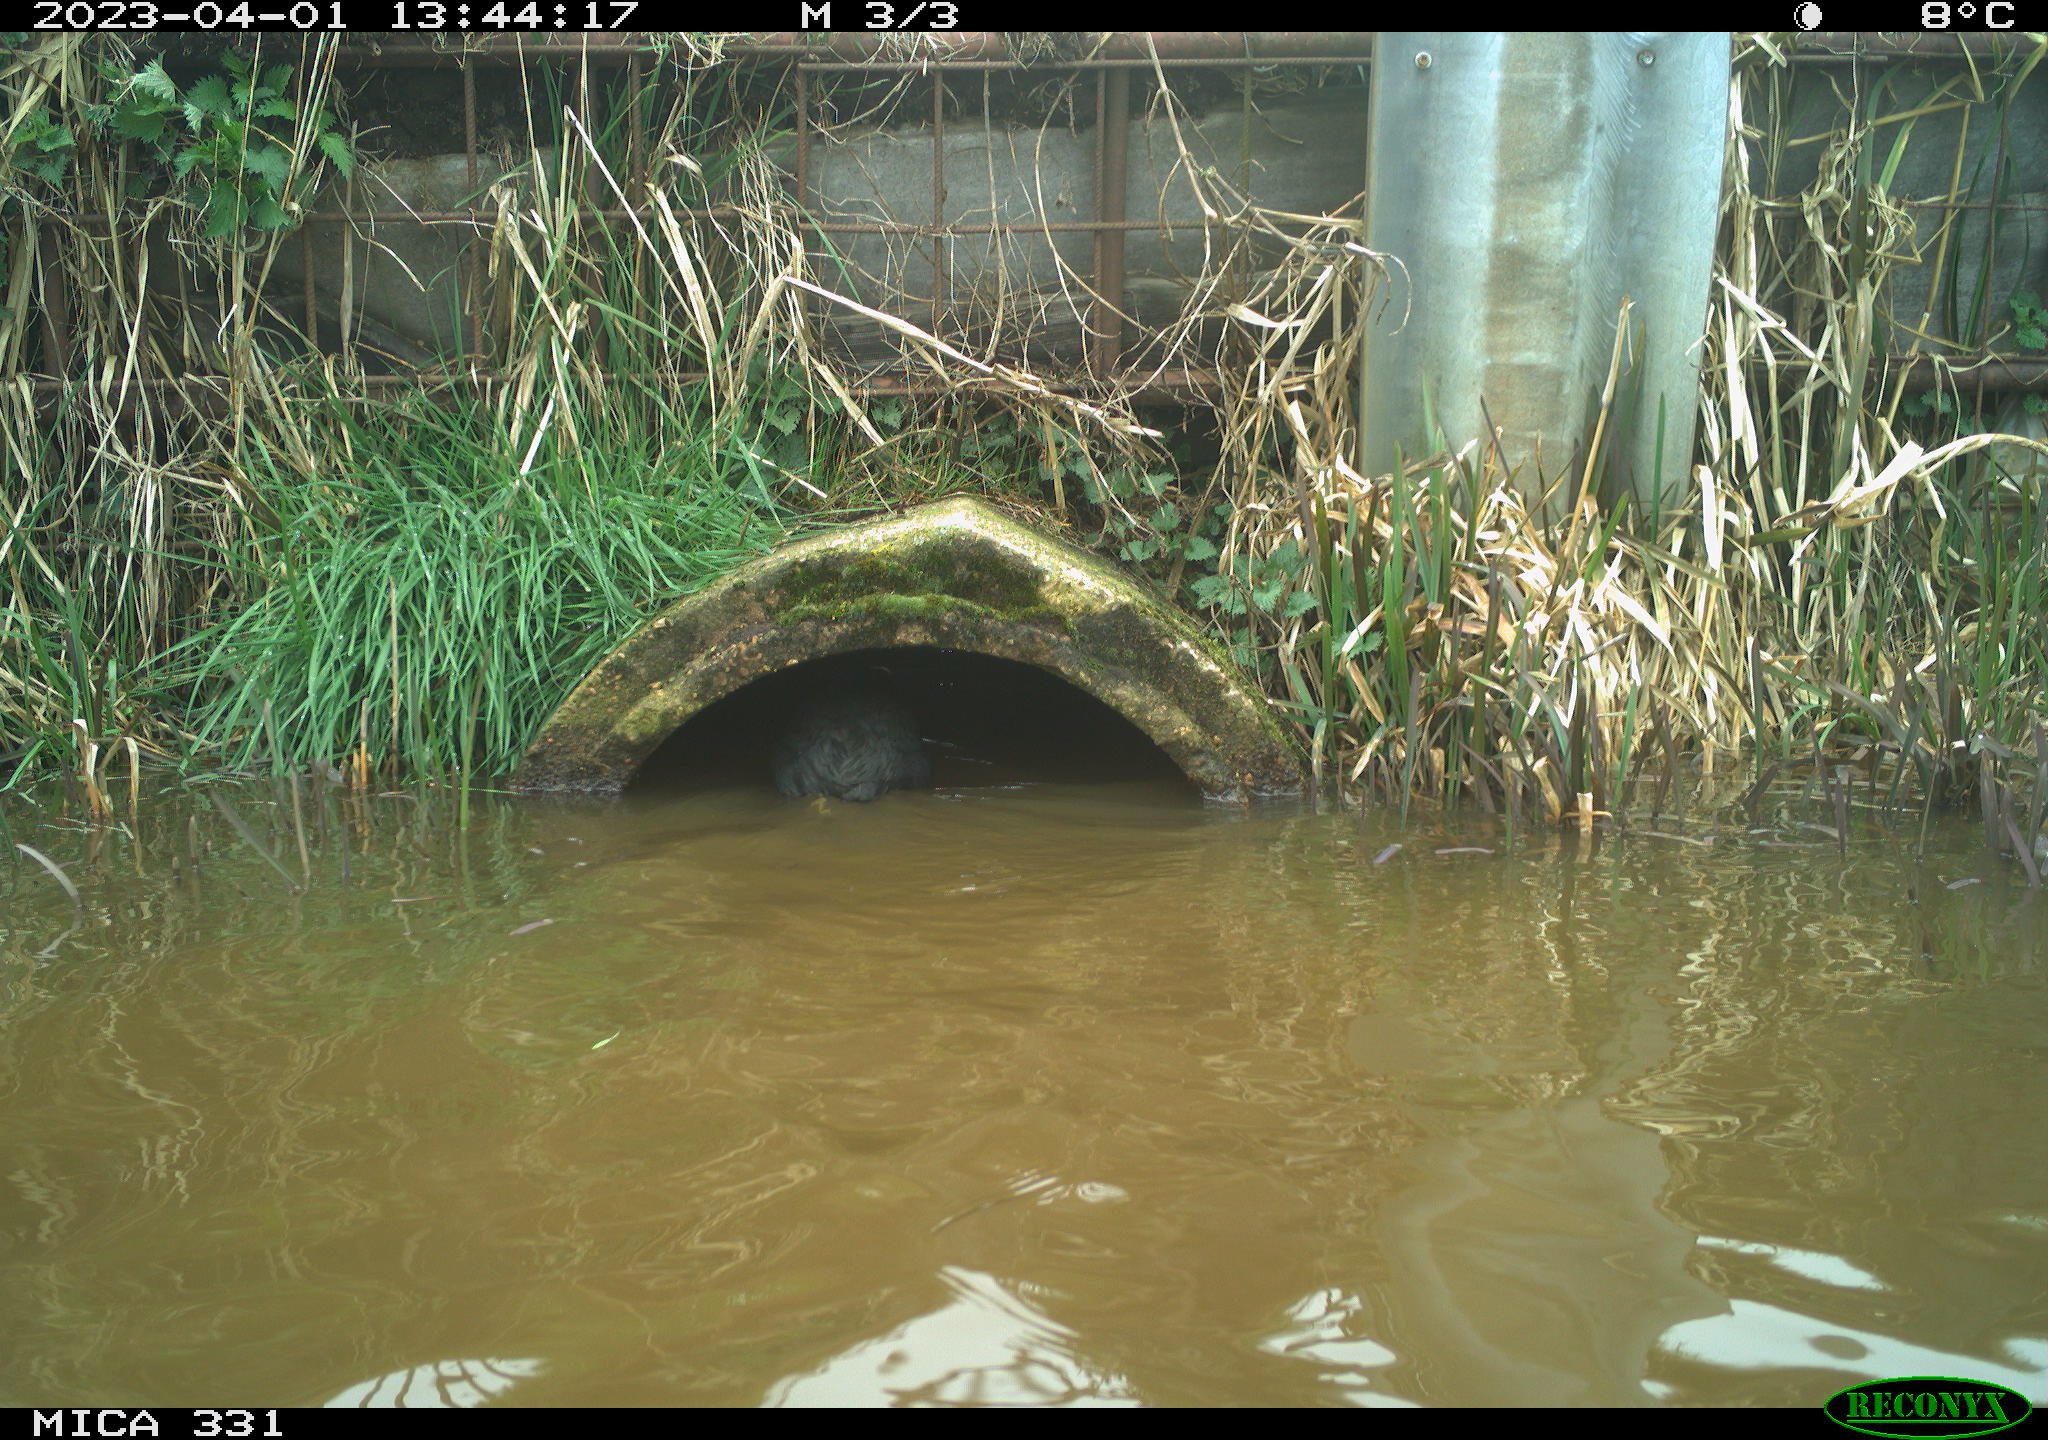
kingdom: Animalia
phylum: Chordata
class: Aves
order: Gruiformes
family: Rallidae
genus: Fulica
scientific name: Fulica atra
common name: Eurasian coot
